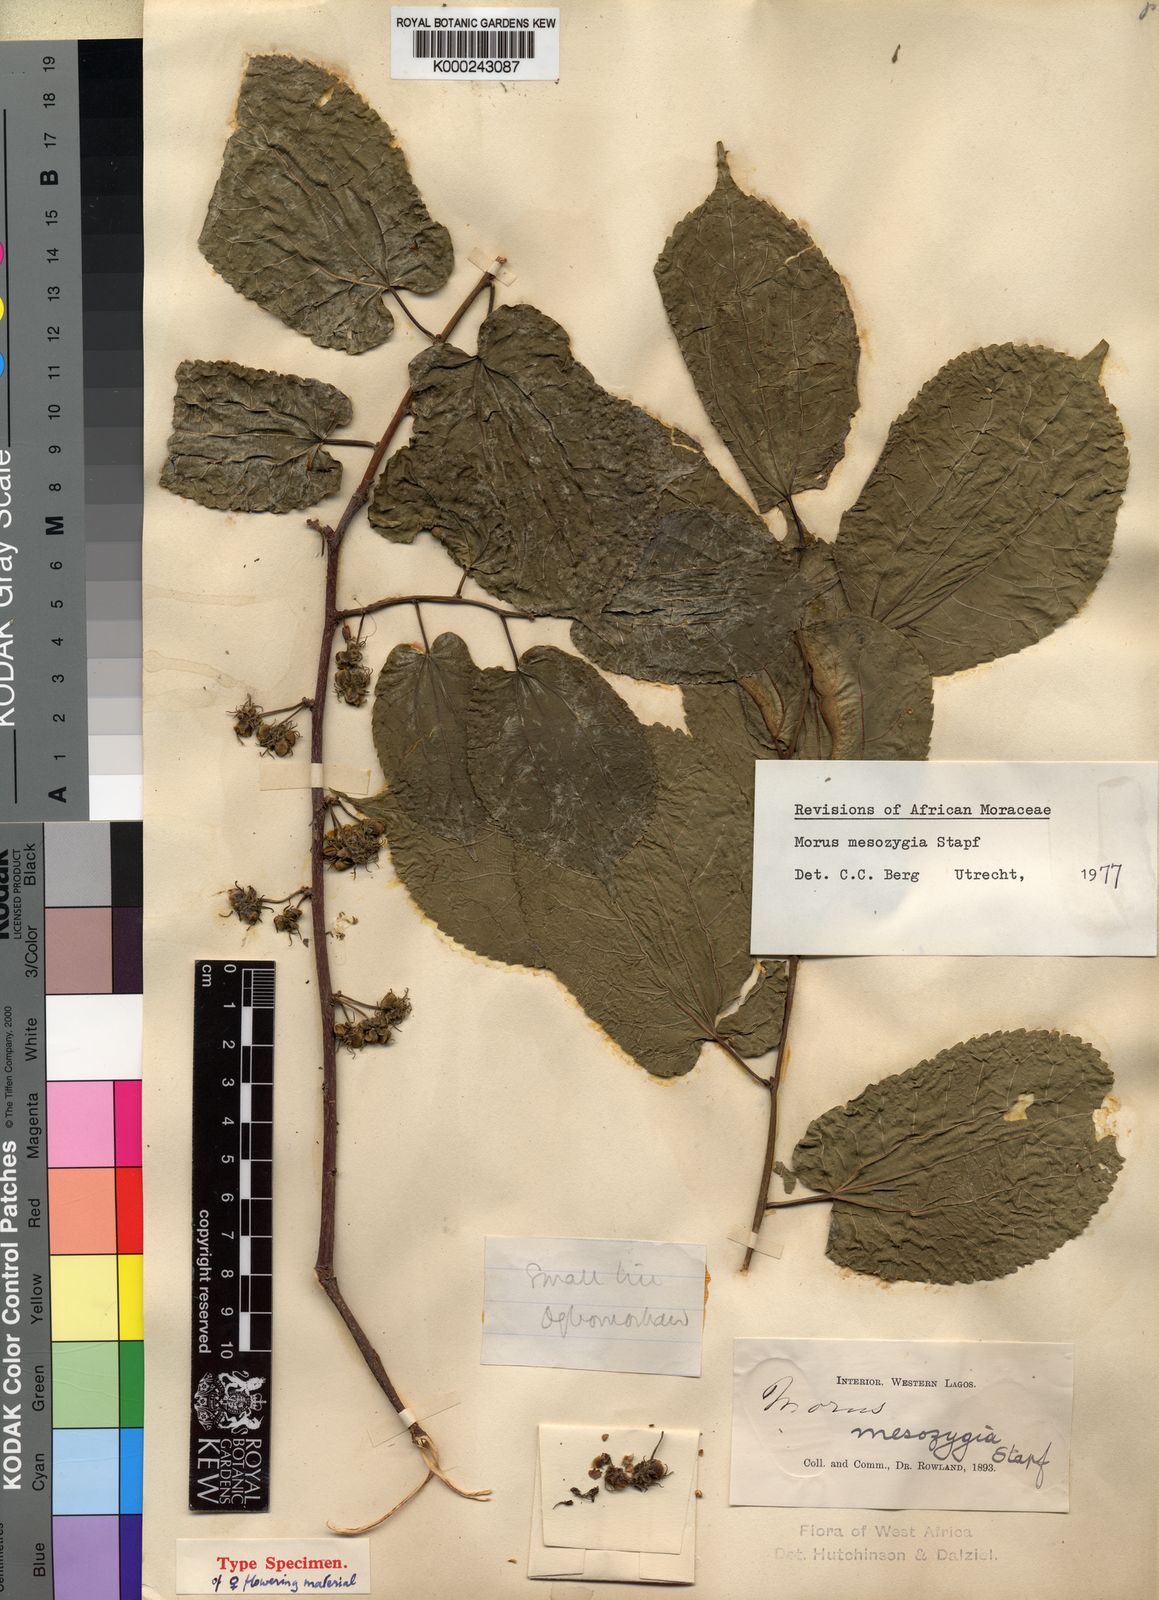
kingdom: Plantae
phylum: Tracheophyta
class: Magnoliopsida
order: Rosales
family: Moraceae
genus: Morus
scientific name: Morus
